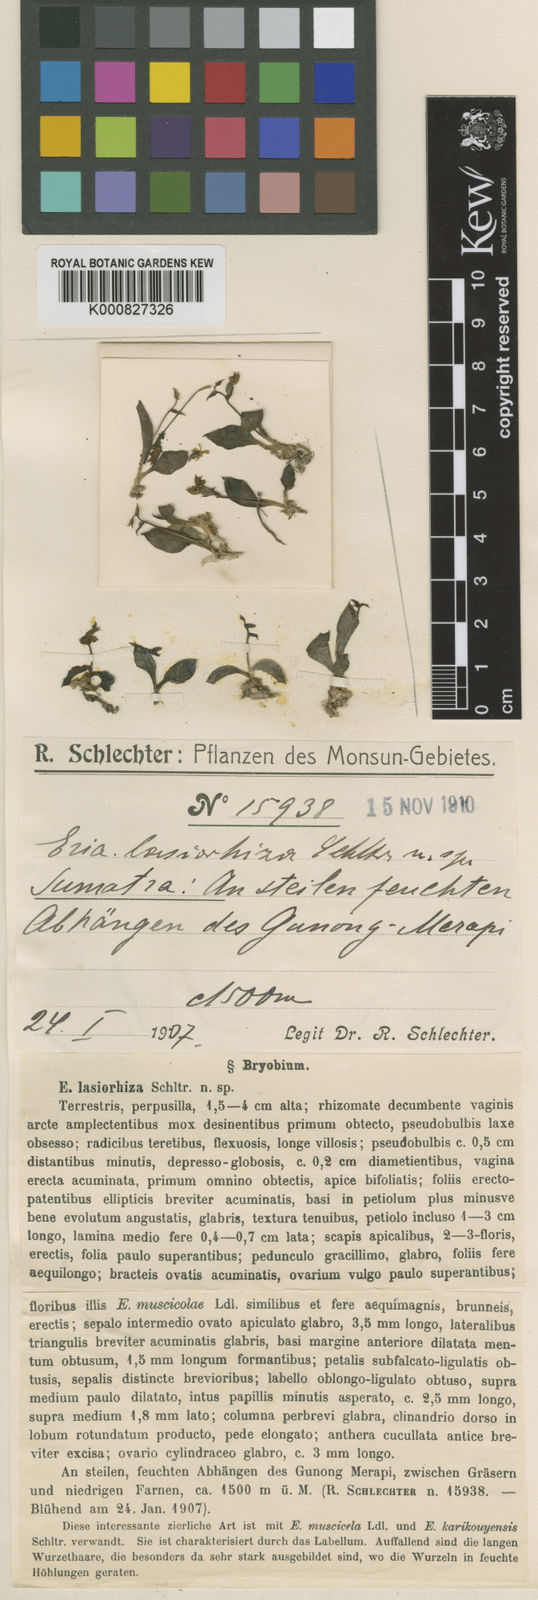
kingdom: Plantae
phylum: Tracheophyta
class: Liliopsida
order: Asparagales
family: Orchidaceae
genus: Porpax
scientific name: Porpax lasiorhiza
